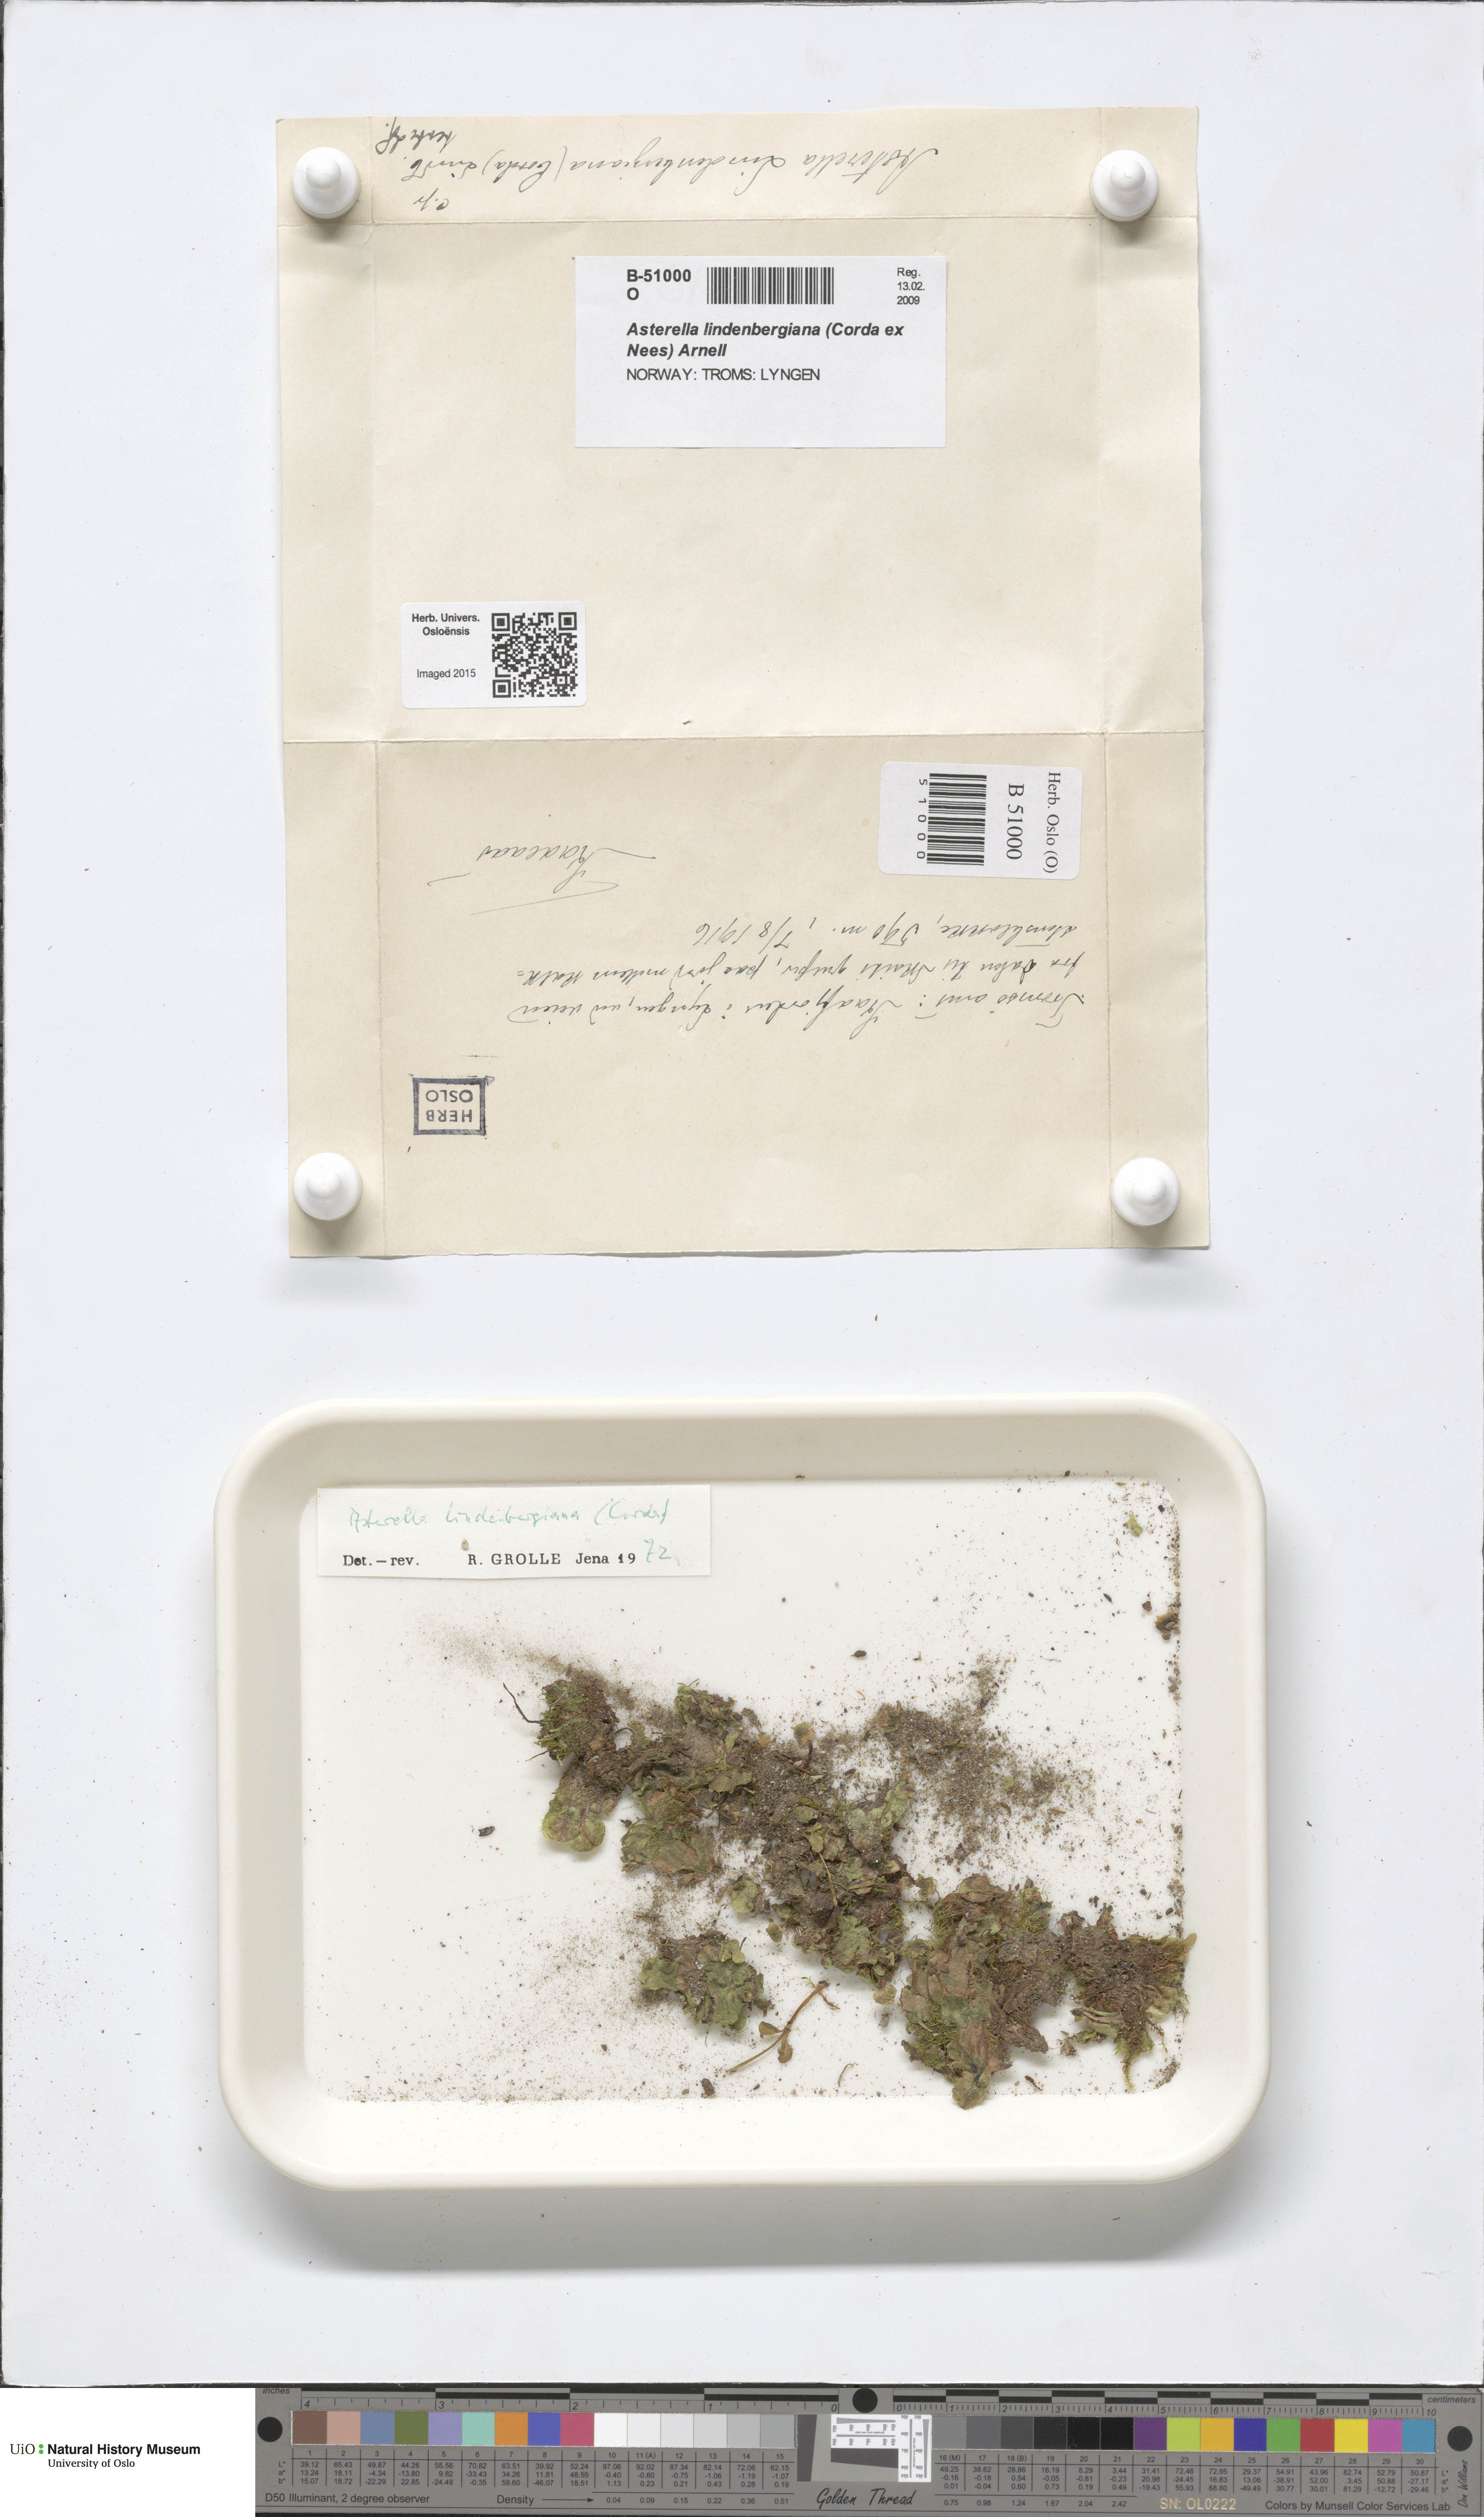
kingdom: Plantae
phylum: Marchantiophyta
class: Marchantiopsida
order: Marchantiales
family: Aytoniaceae
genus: Asterella
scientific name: Asterella lindenbergiana
